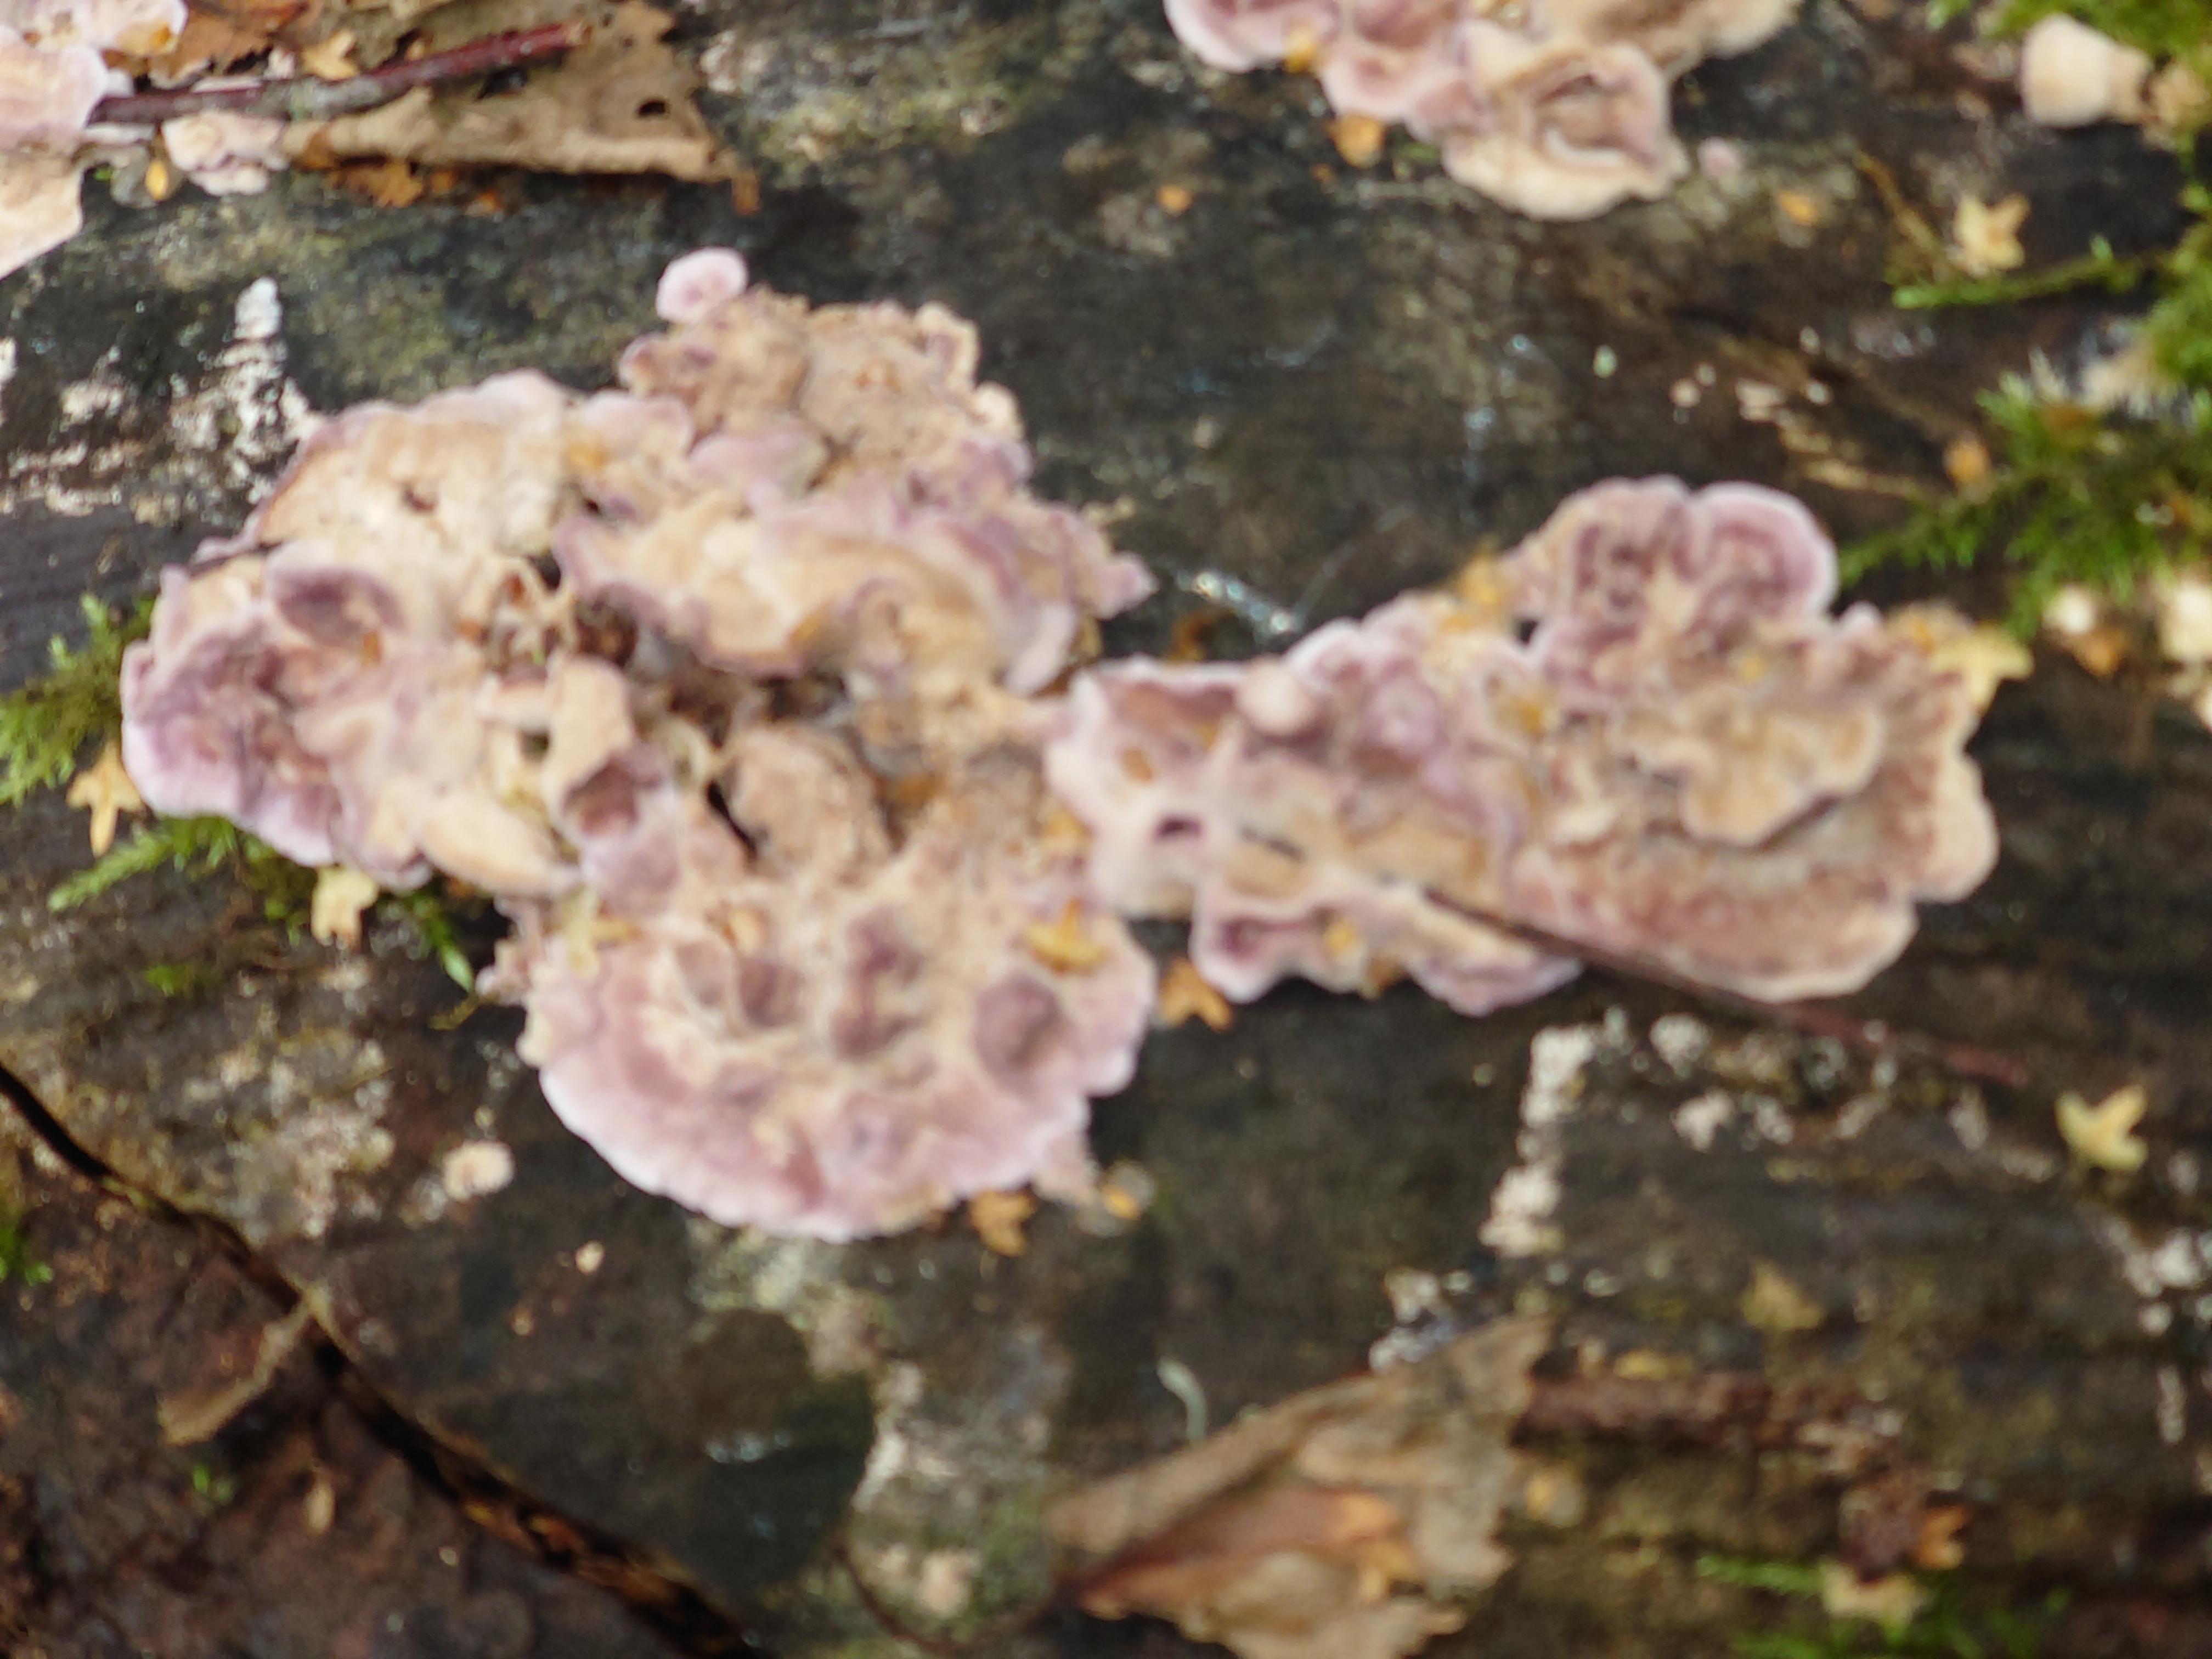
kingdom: Fungi
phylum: Basidiomycota
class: Agaricomycetes
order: Agaricales
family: Cyphellaceae
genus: Chondrostereum
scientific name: Chondrostereum purpureum
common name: purpurlædersvamp
